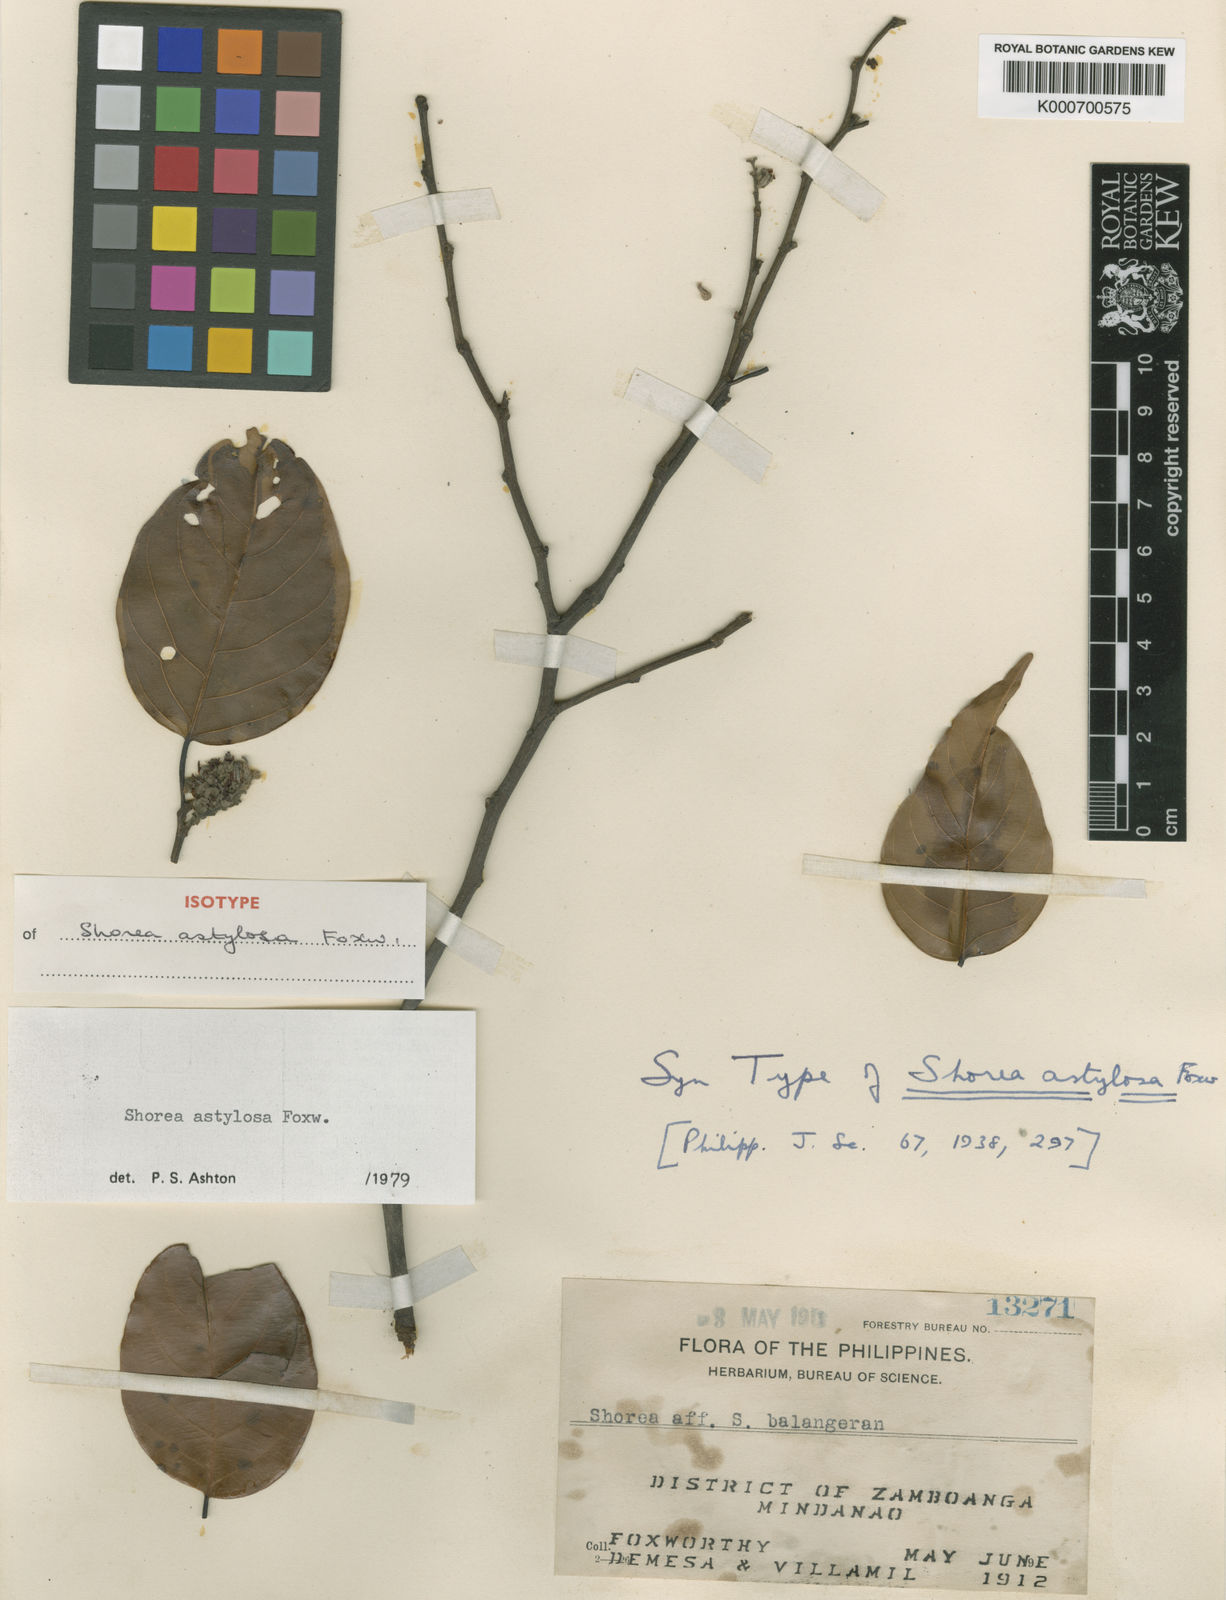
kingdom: Plantae
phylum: Tracheophyta
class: Magnoliopsida
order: Malvales
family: Dipterocarpaceae
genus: Shorea
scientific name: Shorea astylosa
